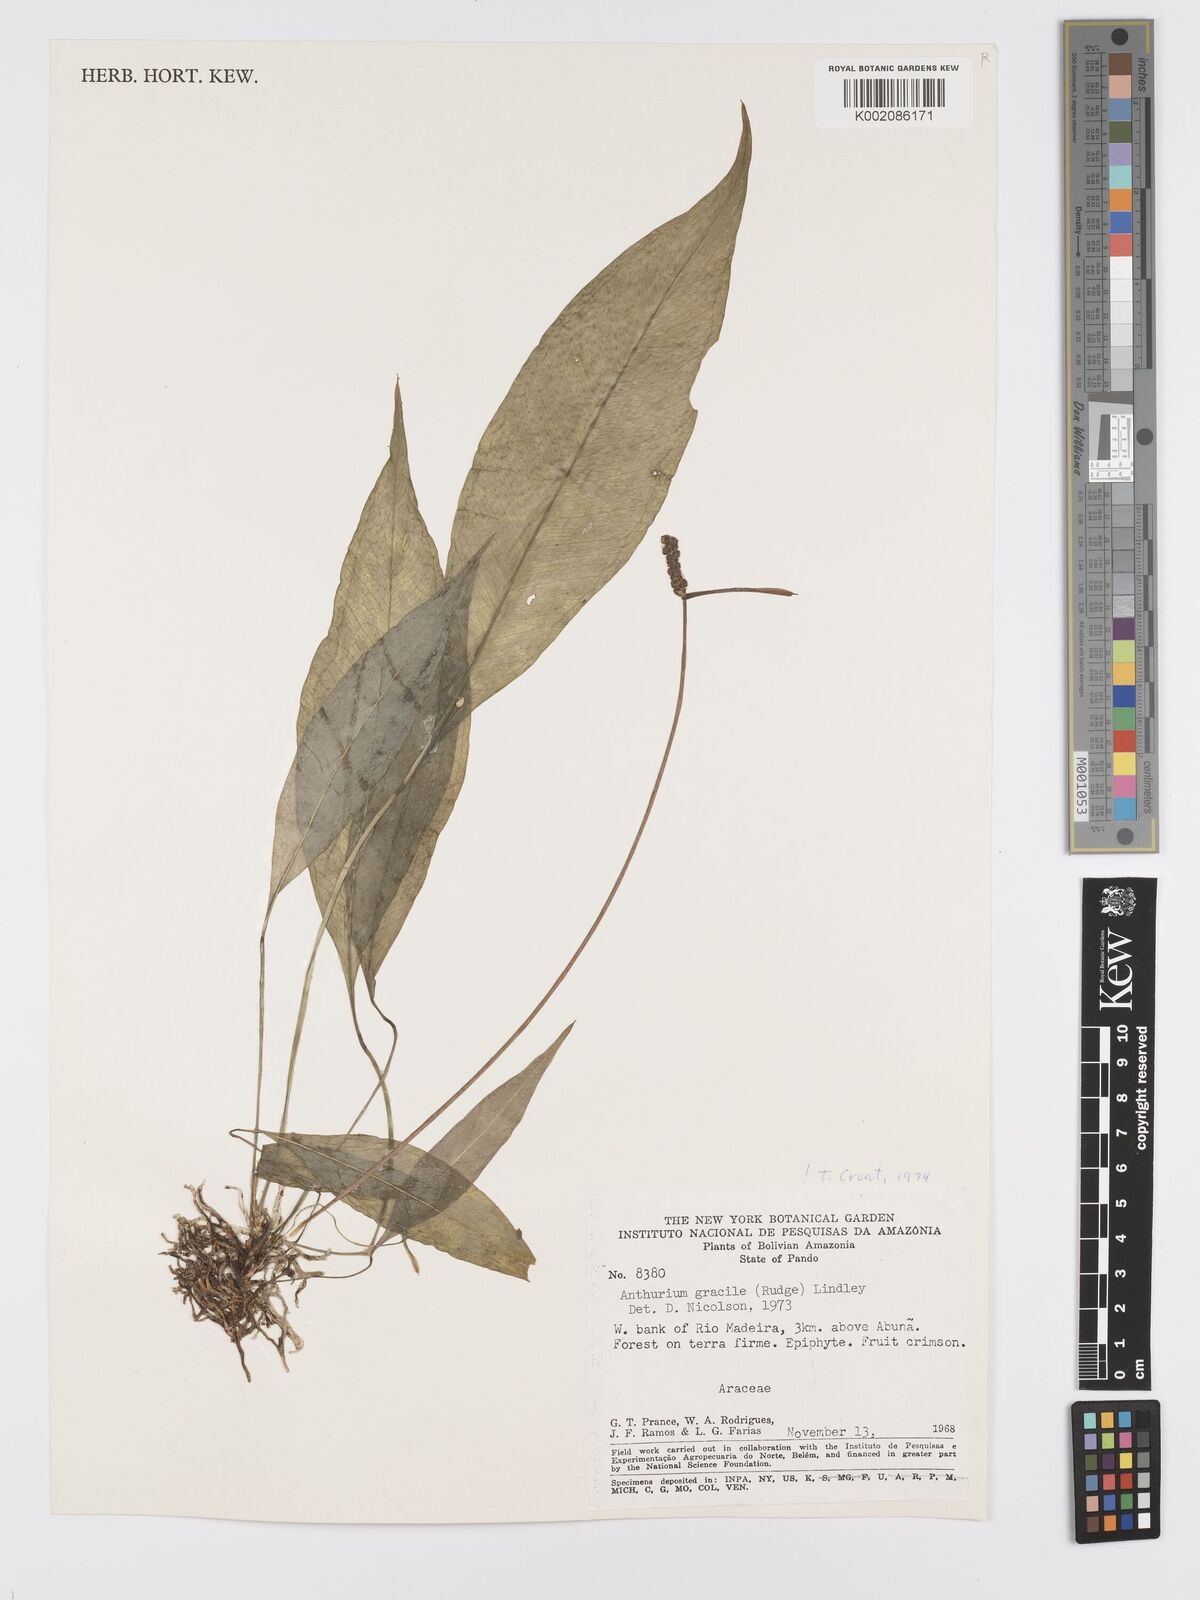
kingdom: Plantae
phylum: Tracheophyta
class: Liliopsida
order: Alismatales
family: Araceae
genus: Anthurium
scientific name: Anthurium gracile
